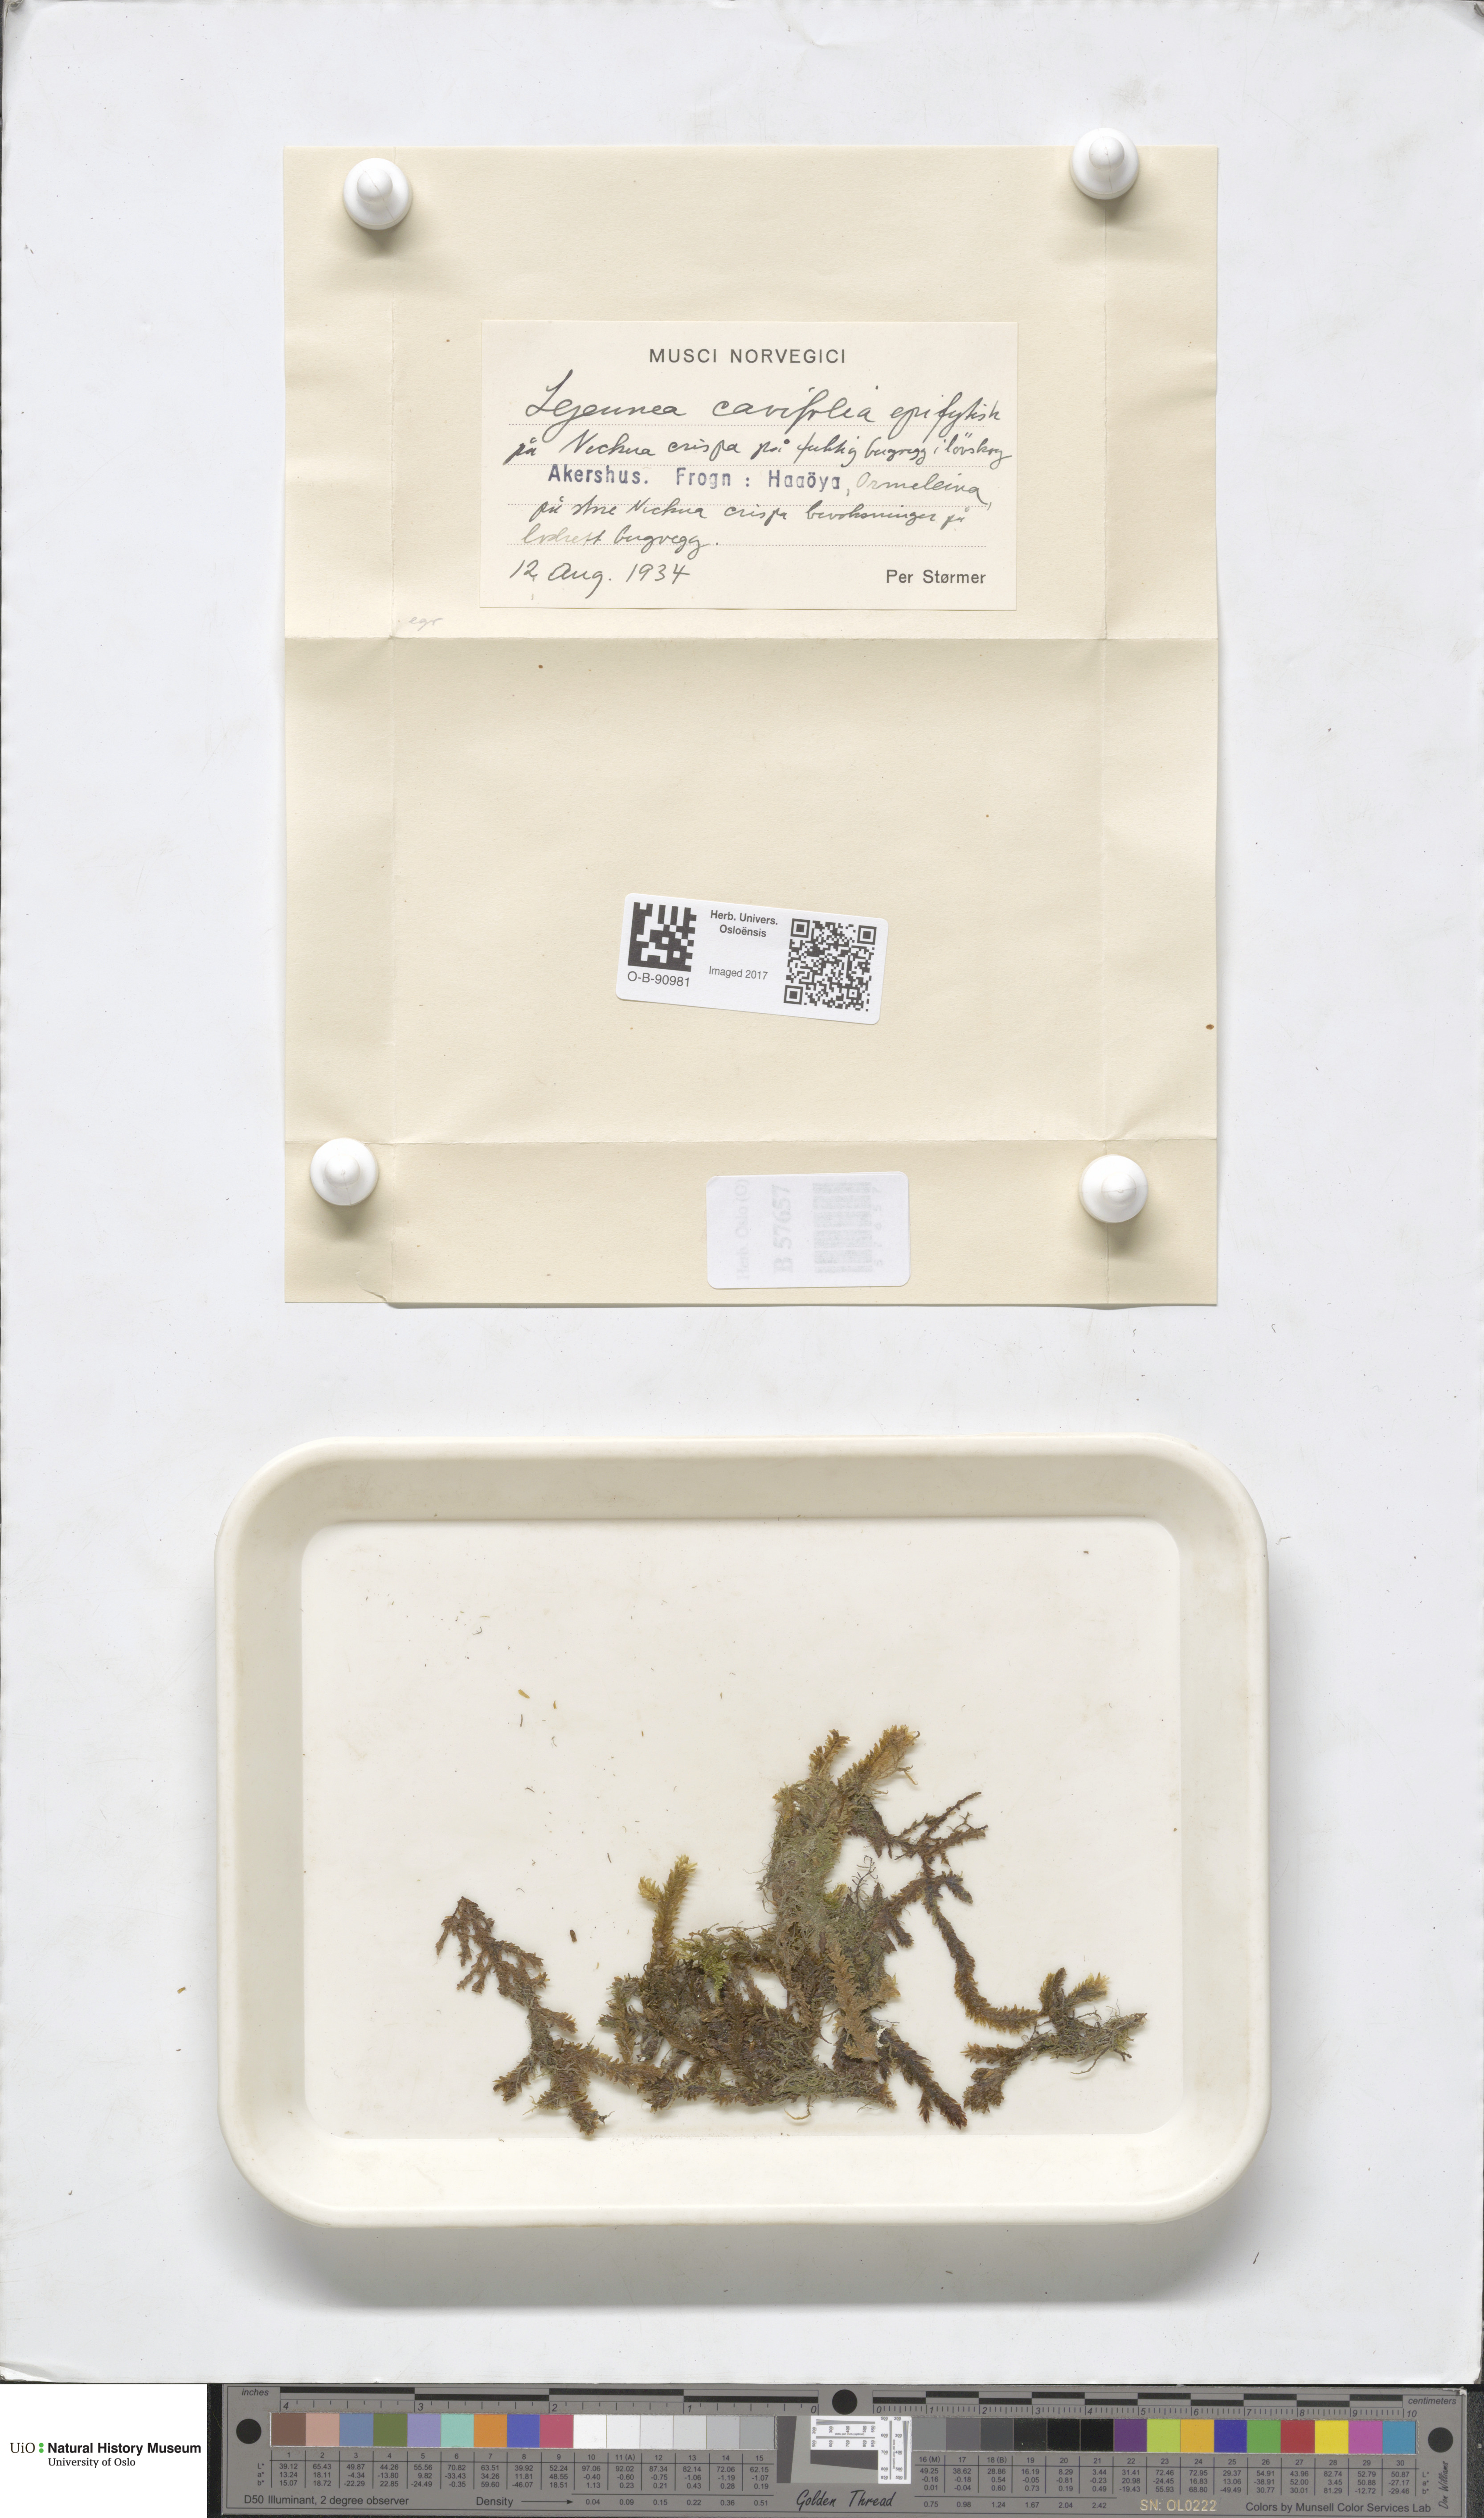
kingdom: Plantae
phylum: Marchantiophyta
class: Jungermanniopsida
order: Porellales
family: Lejeuneaceae
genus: Lejeunea
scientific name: Lejeunea cavifolia
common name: Least pouncewort
